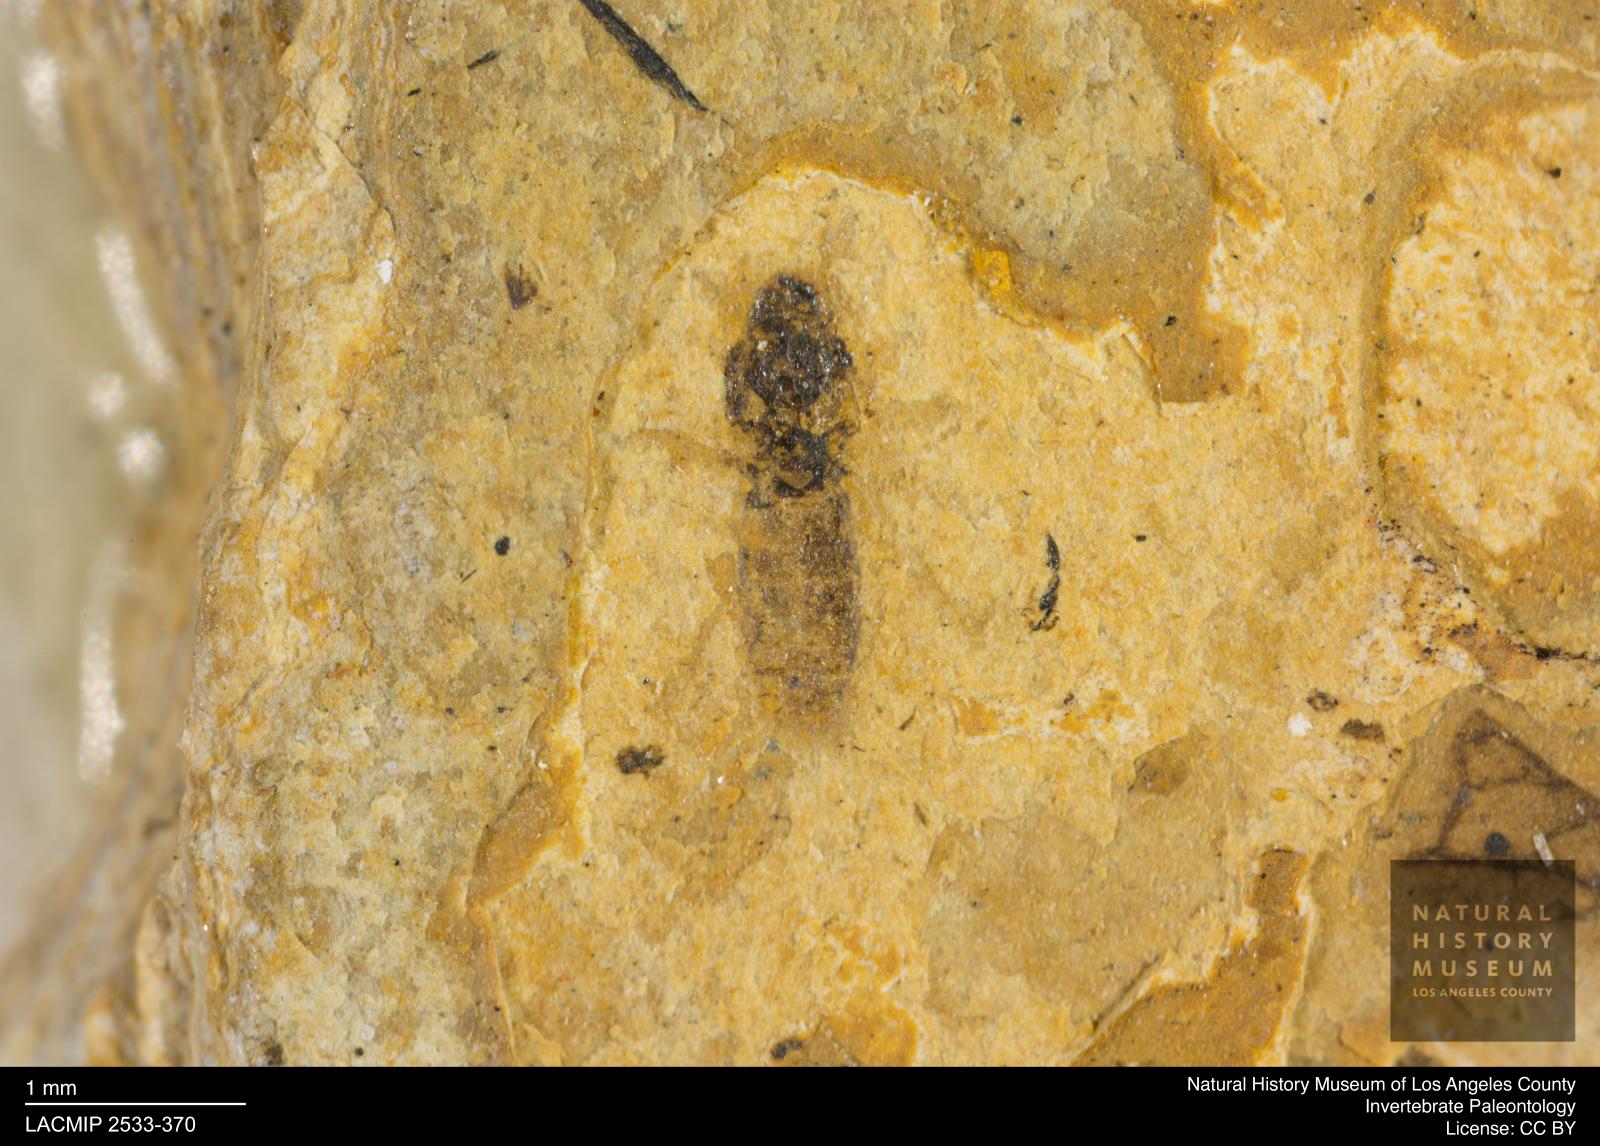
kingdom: Animalia
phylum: Arthropoda
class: Insecta
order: Diptera
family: Ceratopogonidae
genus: Culicoides
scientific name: Culicoides elongatulus
